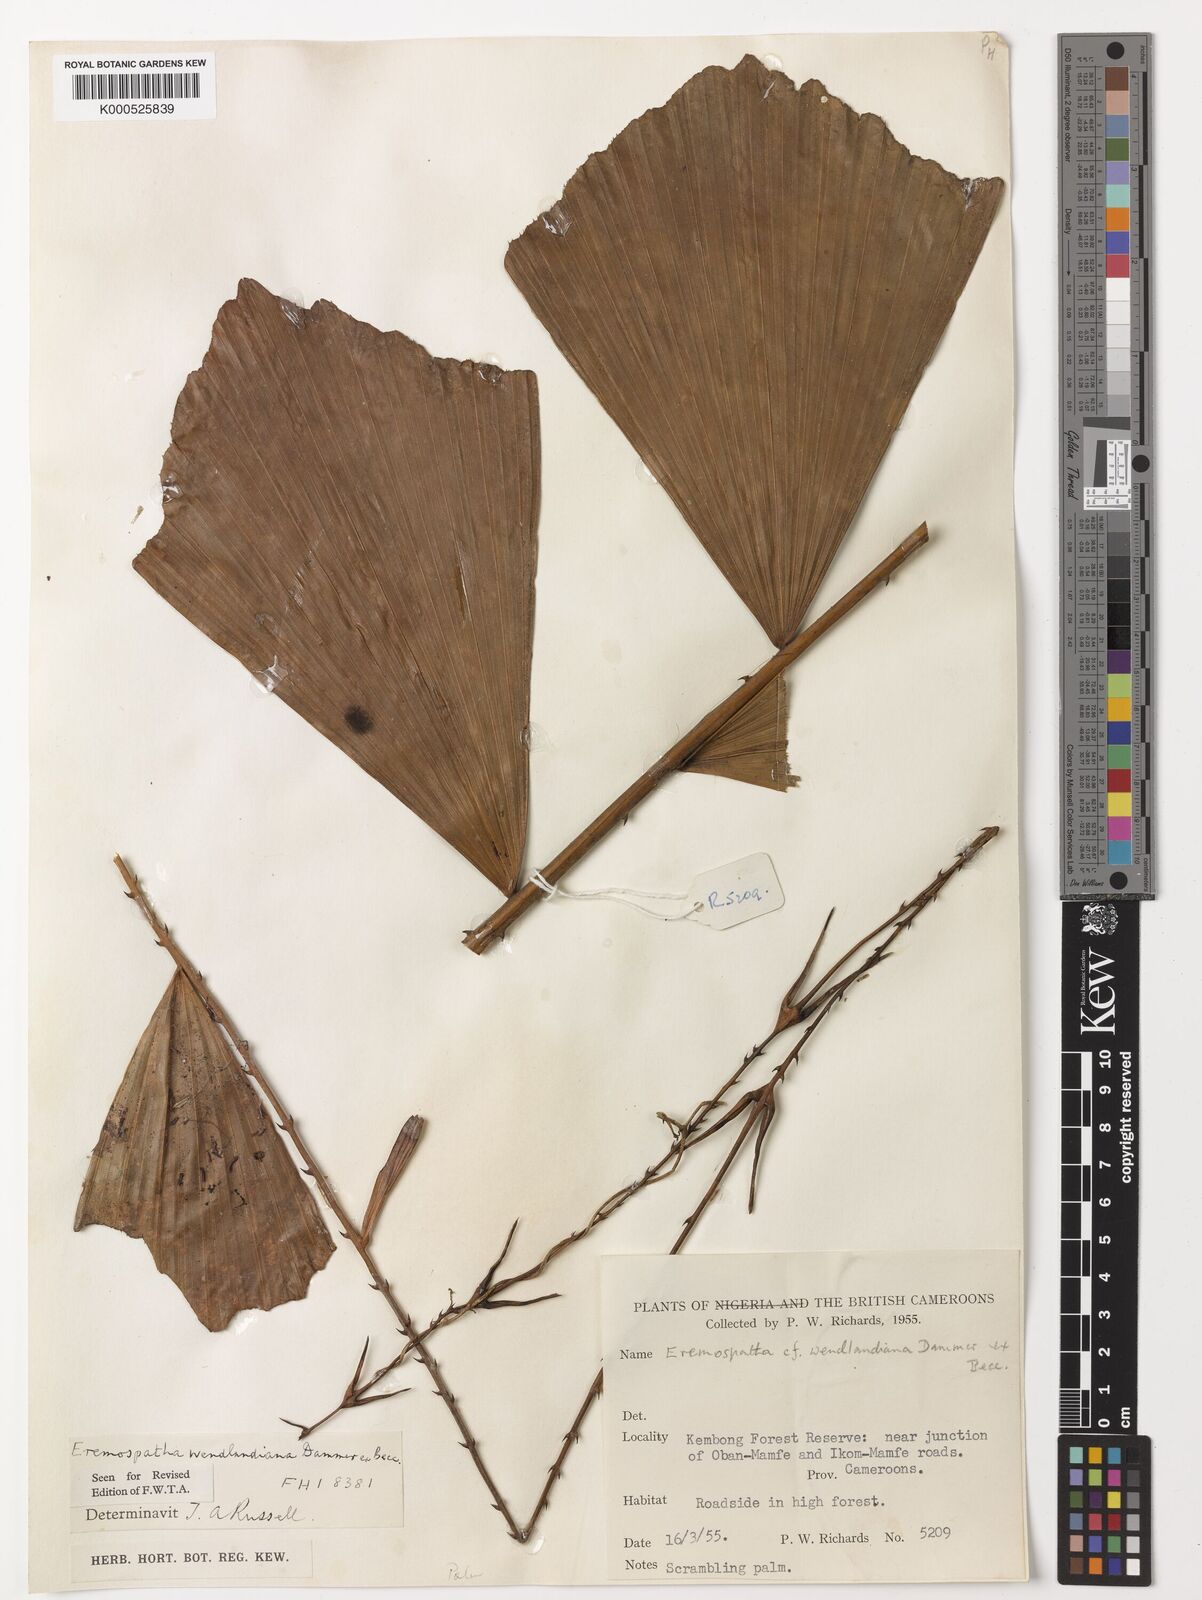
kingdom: Plantae
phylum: Tracheophyta
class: Liliopsida
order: Arecales
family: Arecaceae
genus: Eremospatha
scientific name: Eremospatha wendlandiana
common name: Rattan
